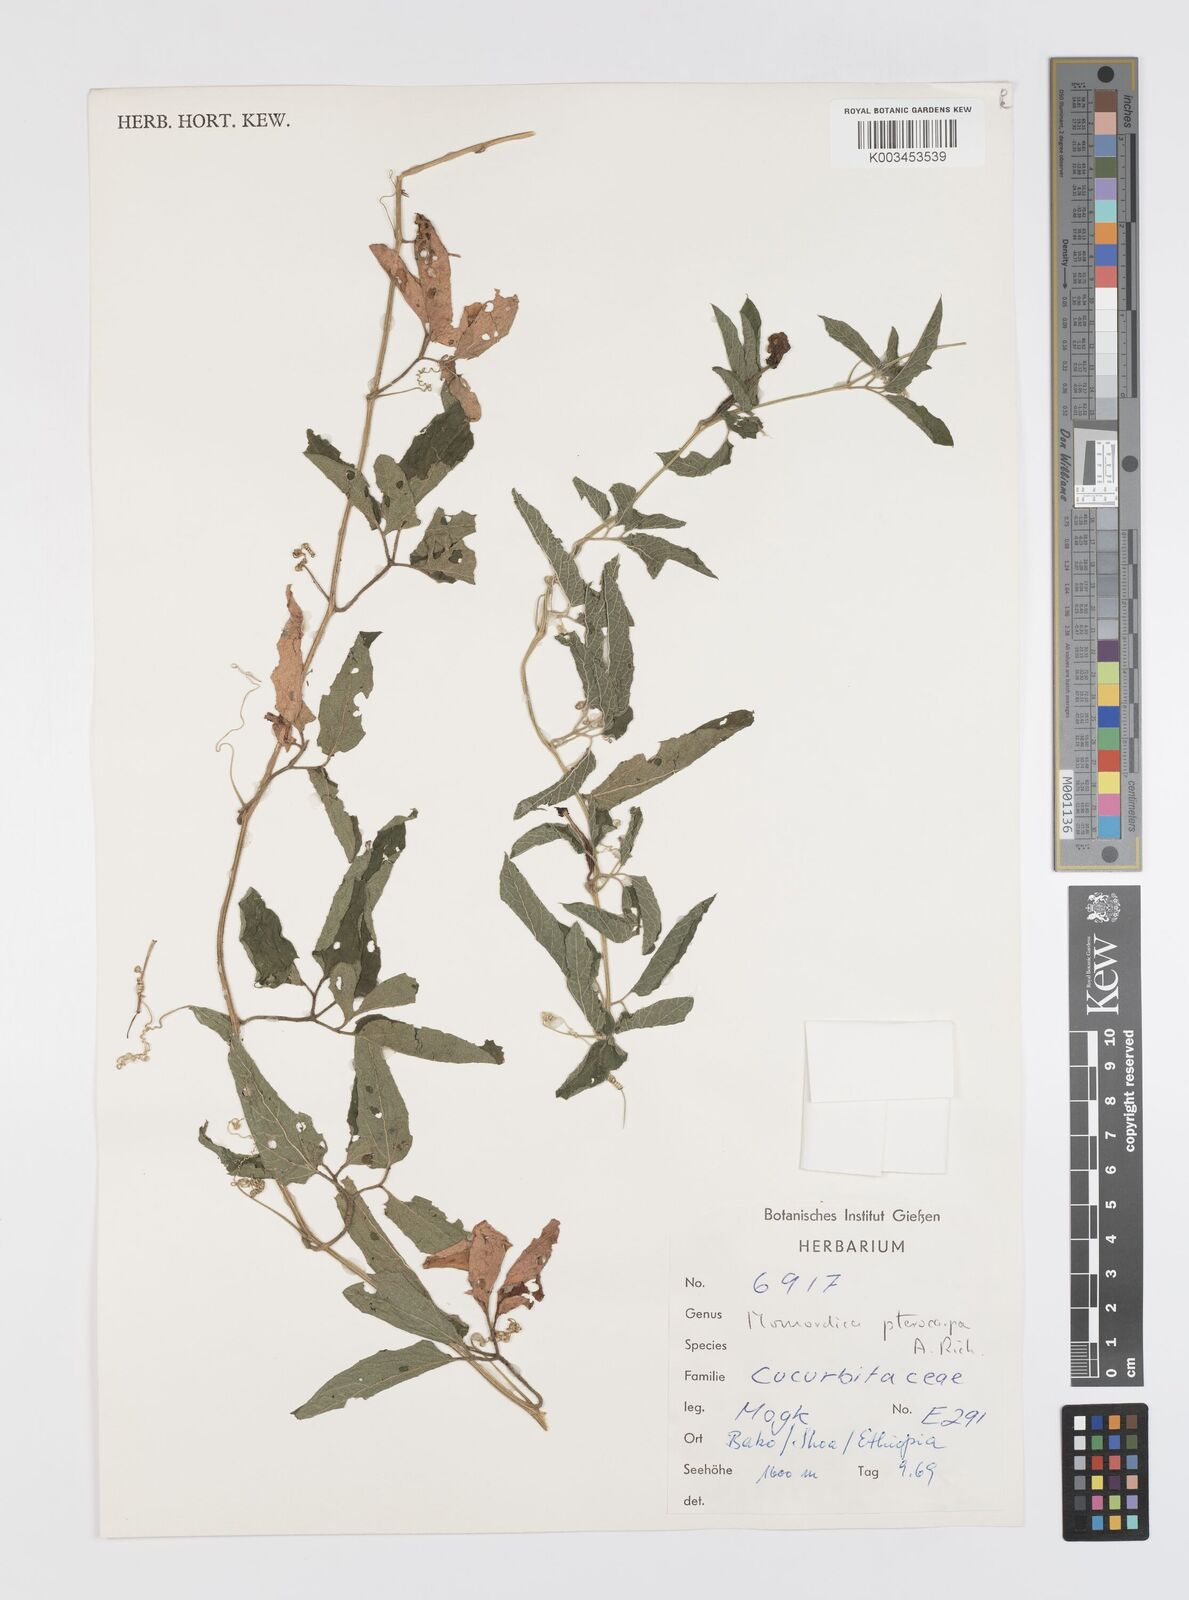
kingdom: Plantae
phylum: Tracheophyta
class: Magnoliopsida
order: Cucurbitales
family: Cucurbitaceae
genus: Momordica
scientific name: Momordica pterocarpa
